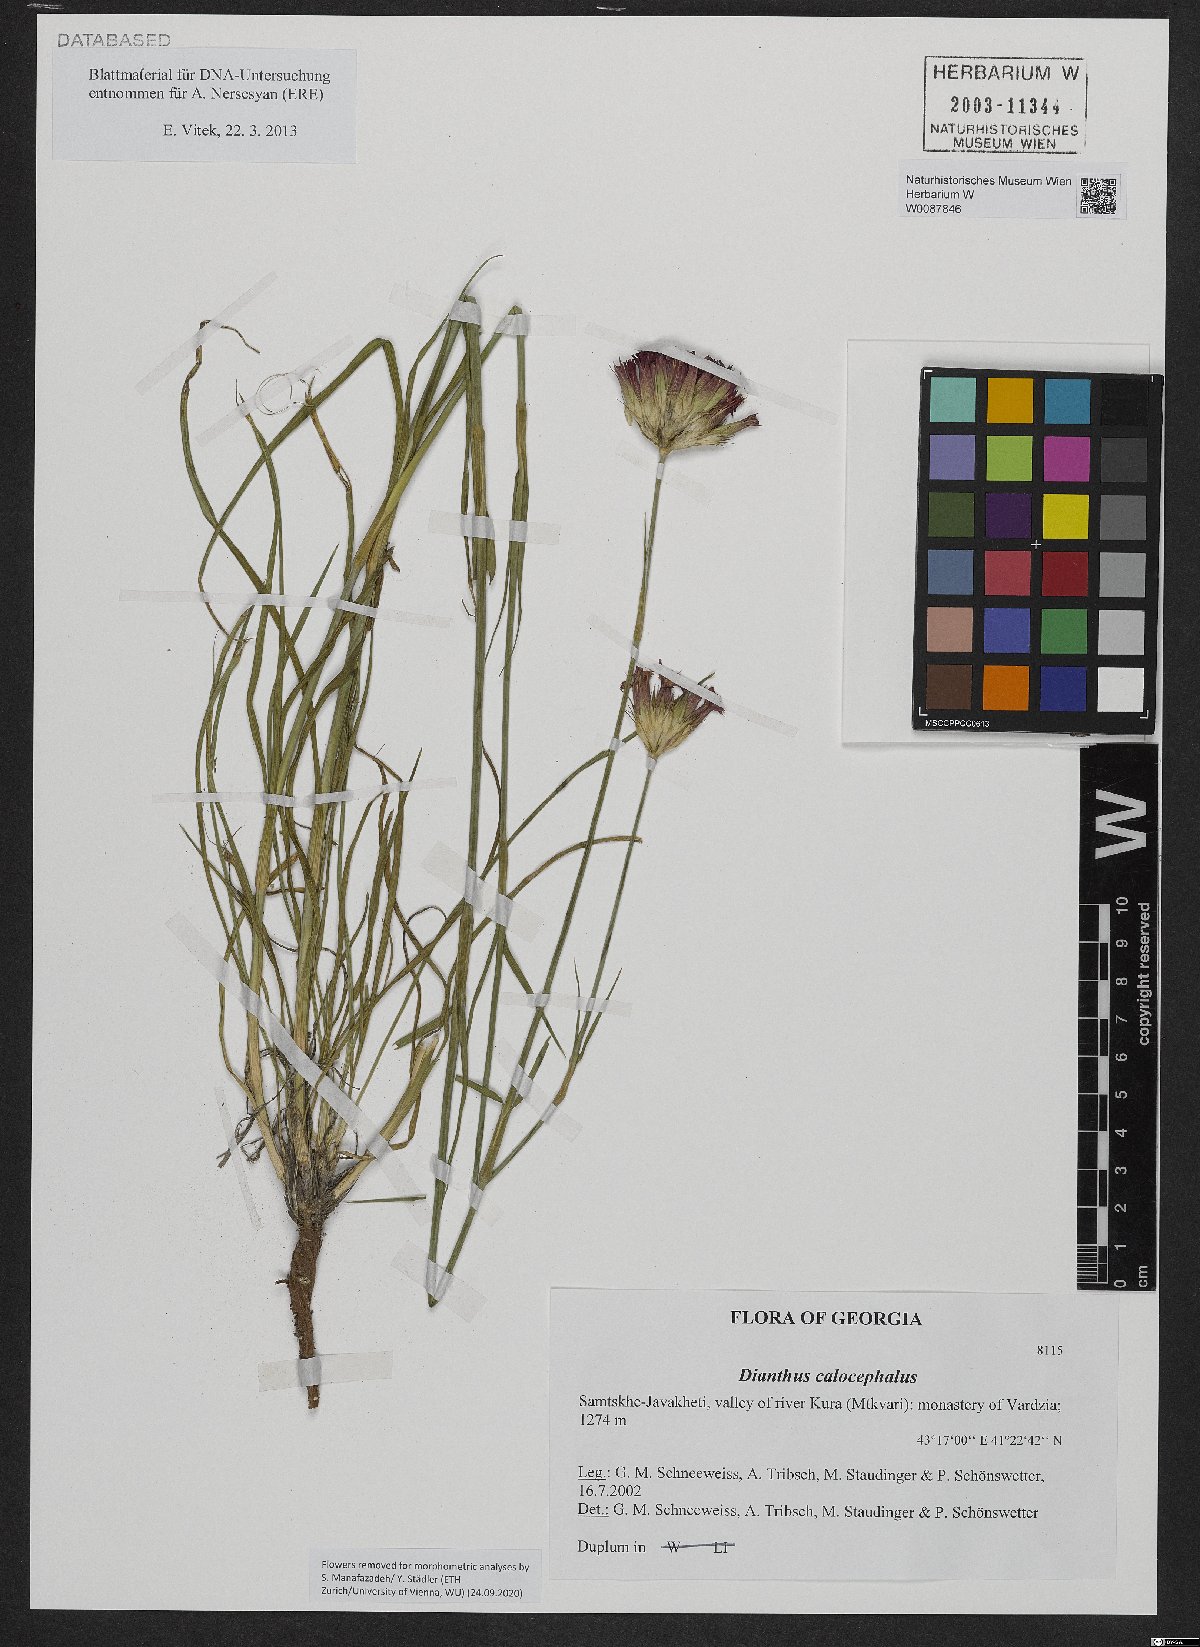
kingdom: Plantae
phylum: Tracheophyta
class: Magnoliopsida
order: Caryophyllales
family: Caryophyllaceae
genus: Dianthus
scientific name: Dianthus cruentus
